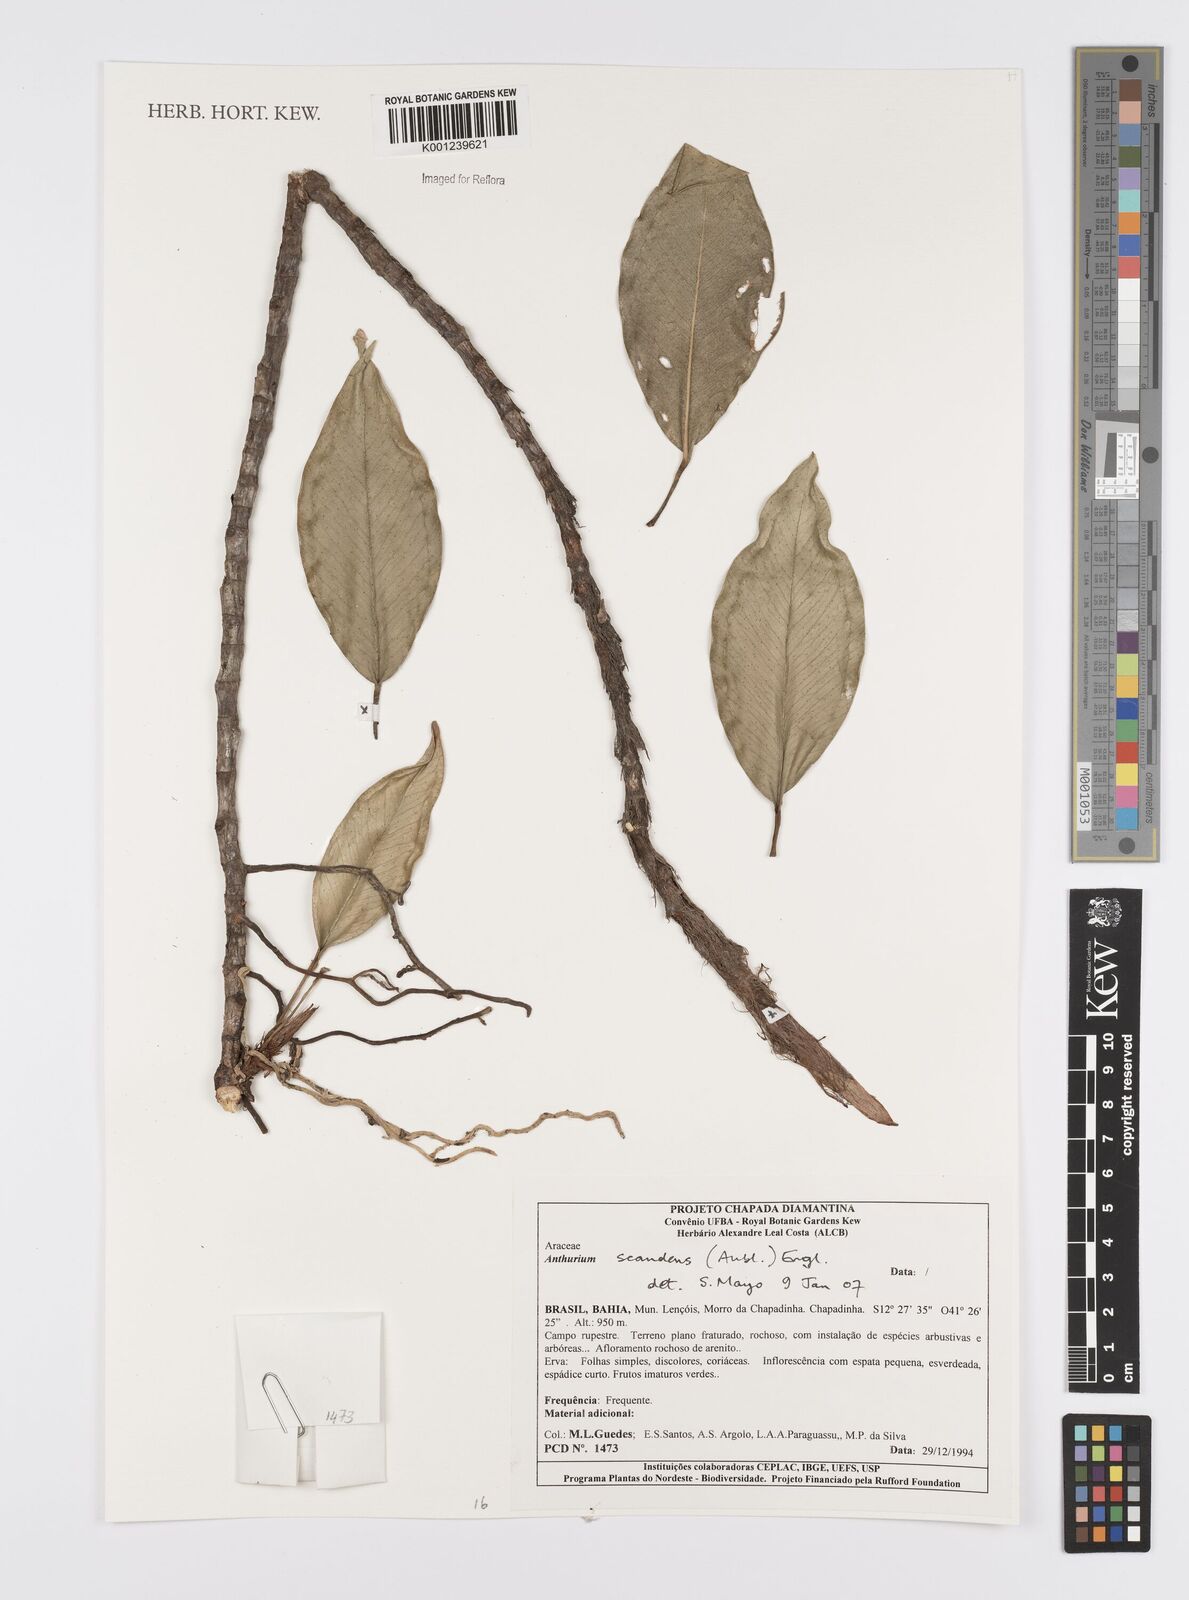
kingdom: Plantae
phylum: Tracheophyta
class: Liliopsida
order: Alismatales
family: Araceae
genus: Anthurium
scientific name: Anthurium scandens
